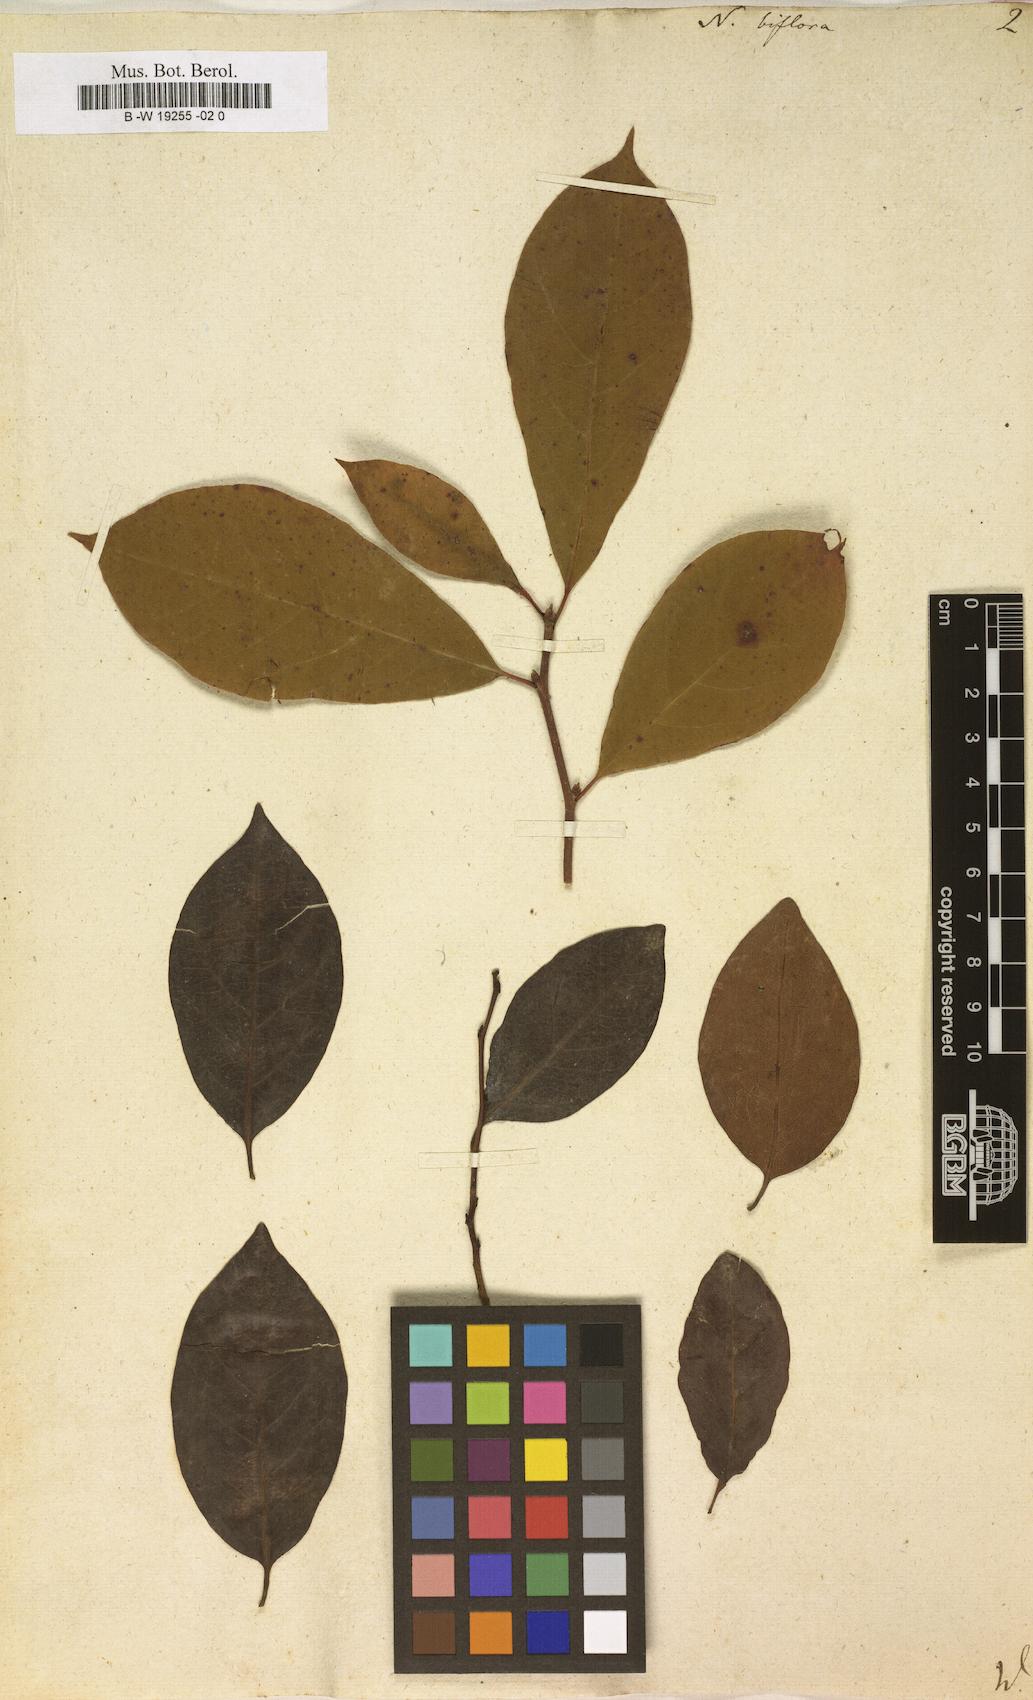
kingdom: Plantae
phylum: Tracheophyta
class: Magnoliopsida
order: Cornales
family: Nyssaceae
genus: Nyssa
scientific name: Nyssa biflora
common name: Swamp blackgum
